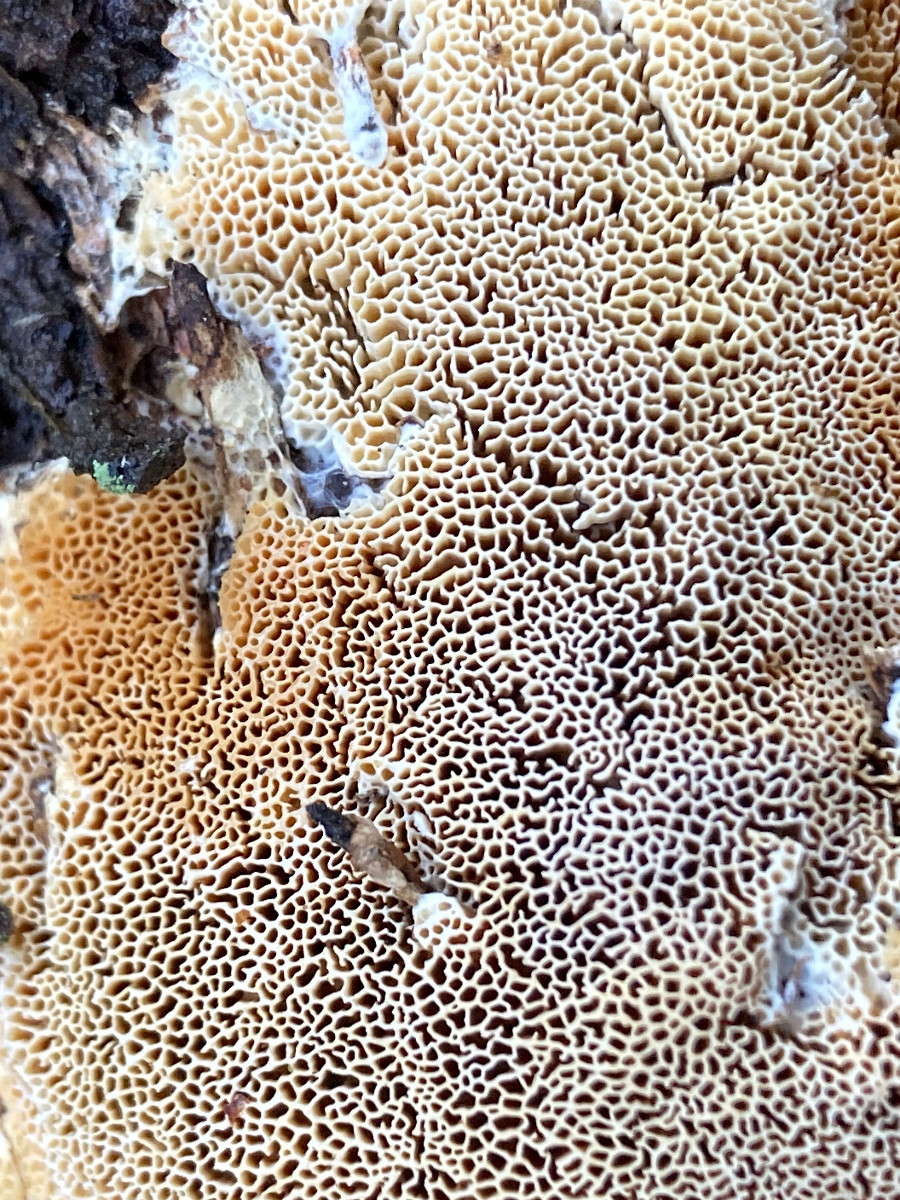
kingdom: Fungi
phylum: Basidiomycota
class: Agaricomycetes
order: Polyporales
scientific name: Polyporales
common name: poresvampordenen
